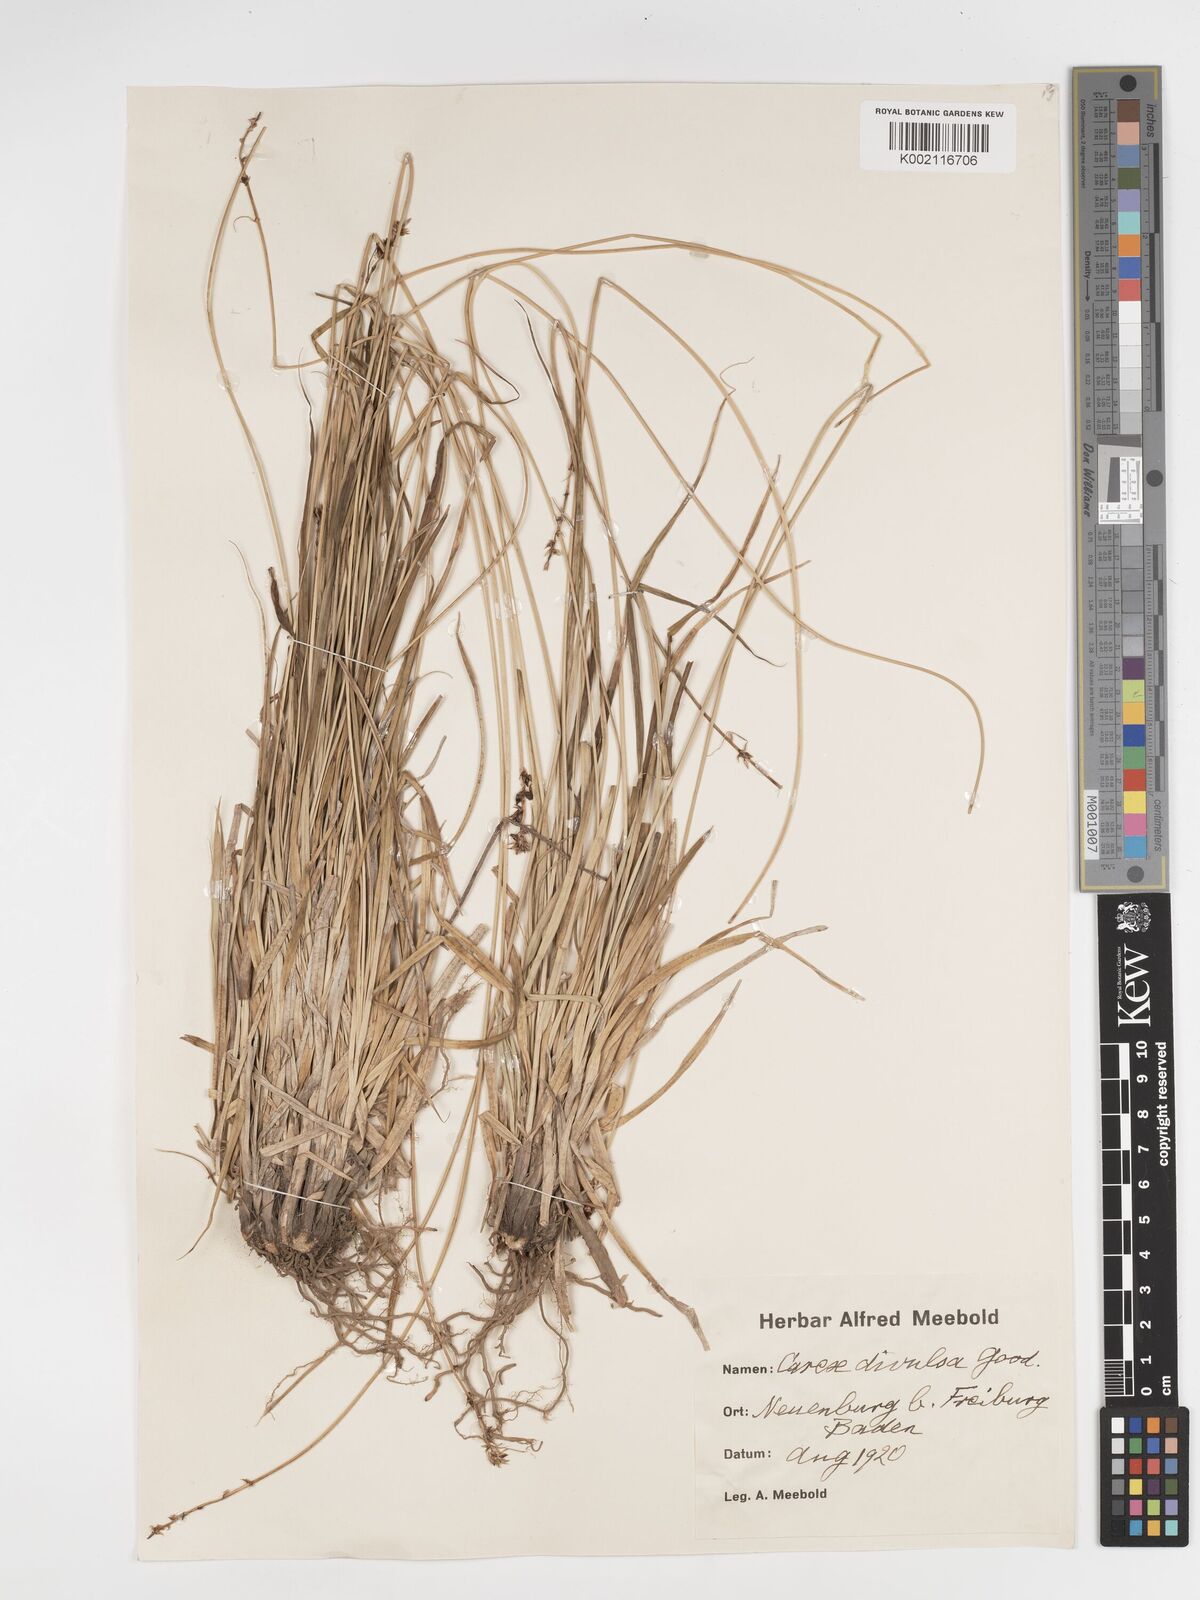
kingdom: Plantae
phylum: Tracheophyta
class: Liliopsida
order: Poales
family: Cyperaceae
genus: Carex
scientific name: Carex divulsa
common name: Grassland sedge
